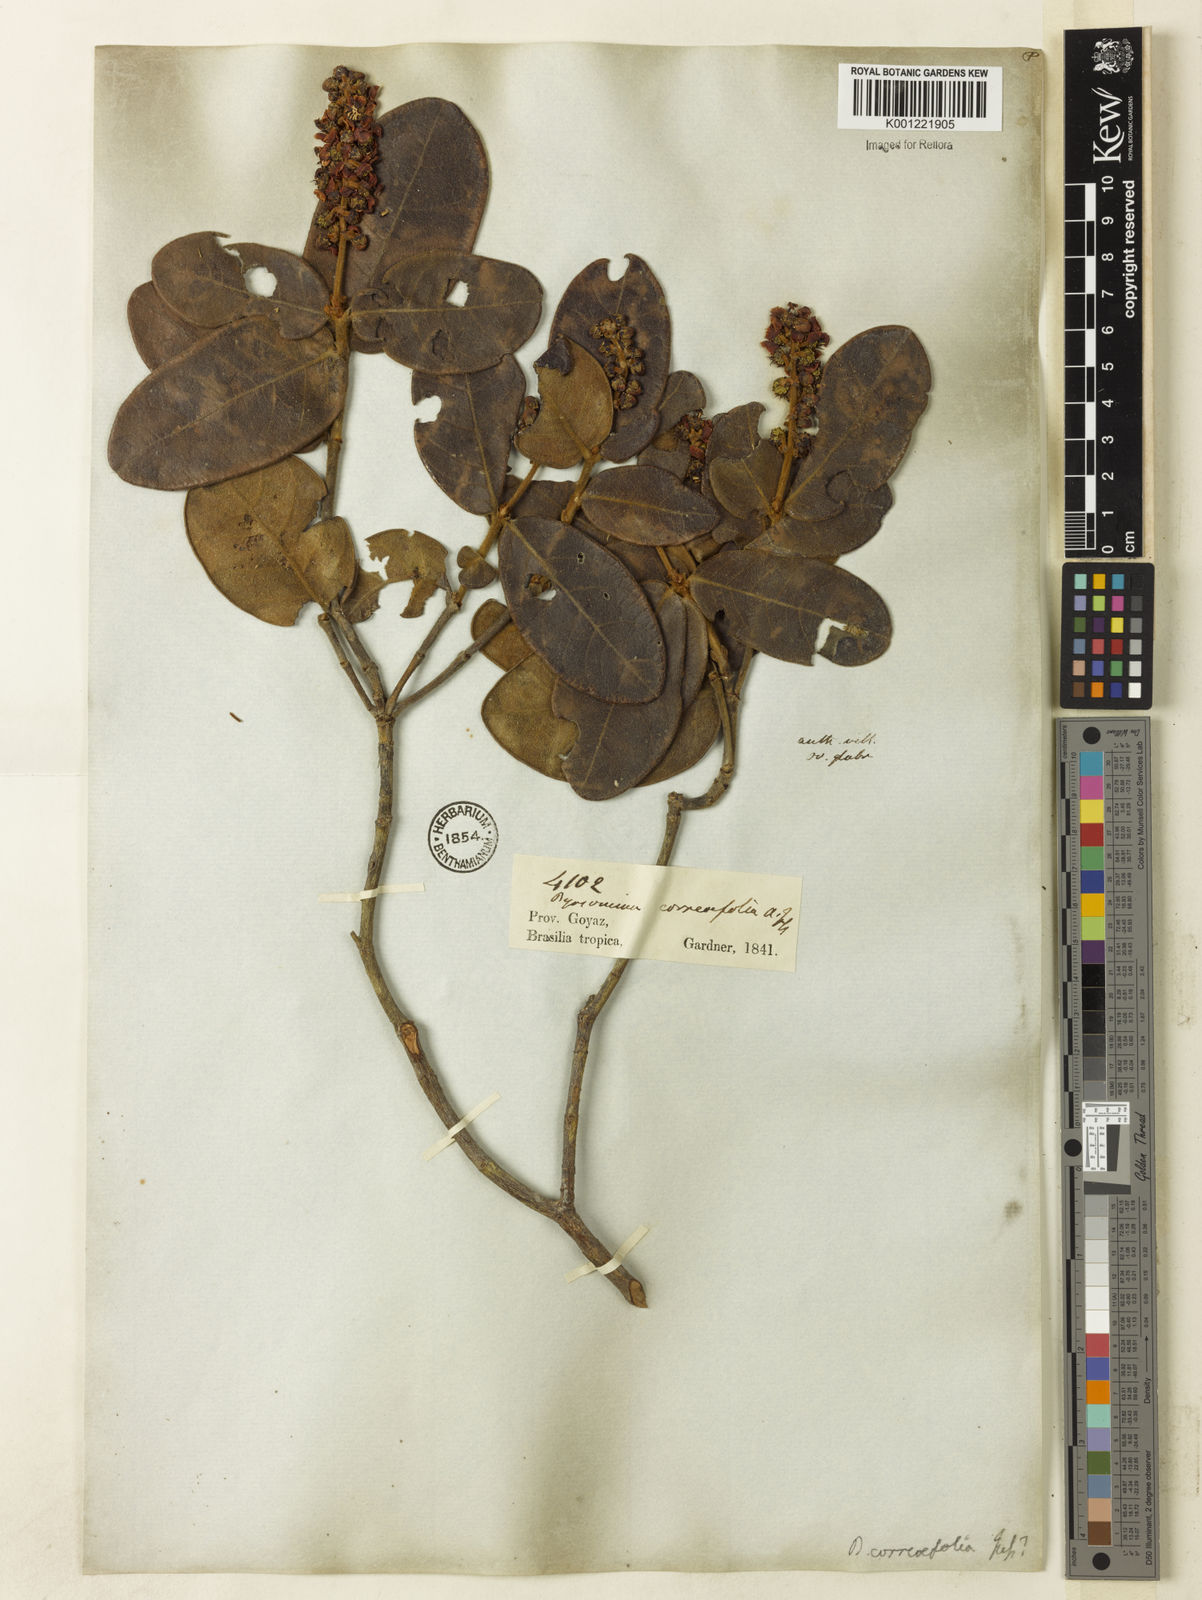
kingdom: Plantae
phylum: Tracheophyta
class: Magnoliopsida
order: Malpighiales
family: Malpighiaceae
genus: Byrsonima
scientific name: Byrsonima correifolia
